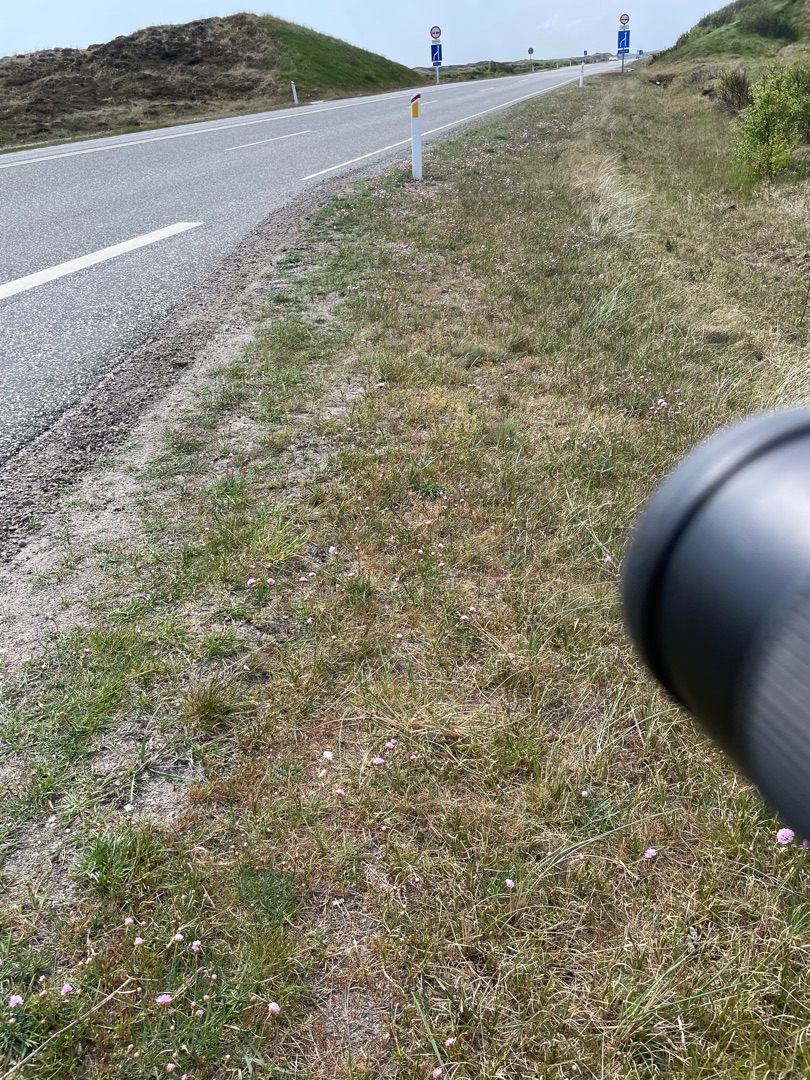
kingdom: Plantae
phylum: Tracheophyta
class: Magnoliopsida
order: Caryophyllales
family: Plumbaginaceae
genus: Armeria
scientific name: Armeria maritima
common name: Engelskgræs
